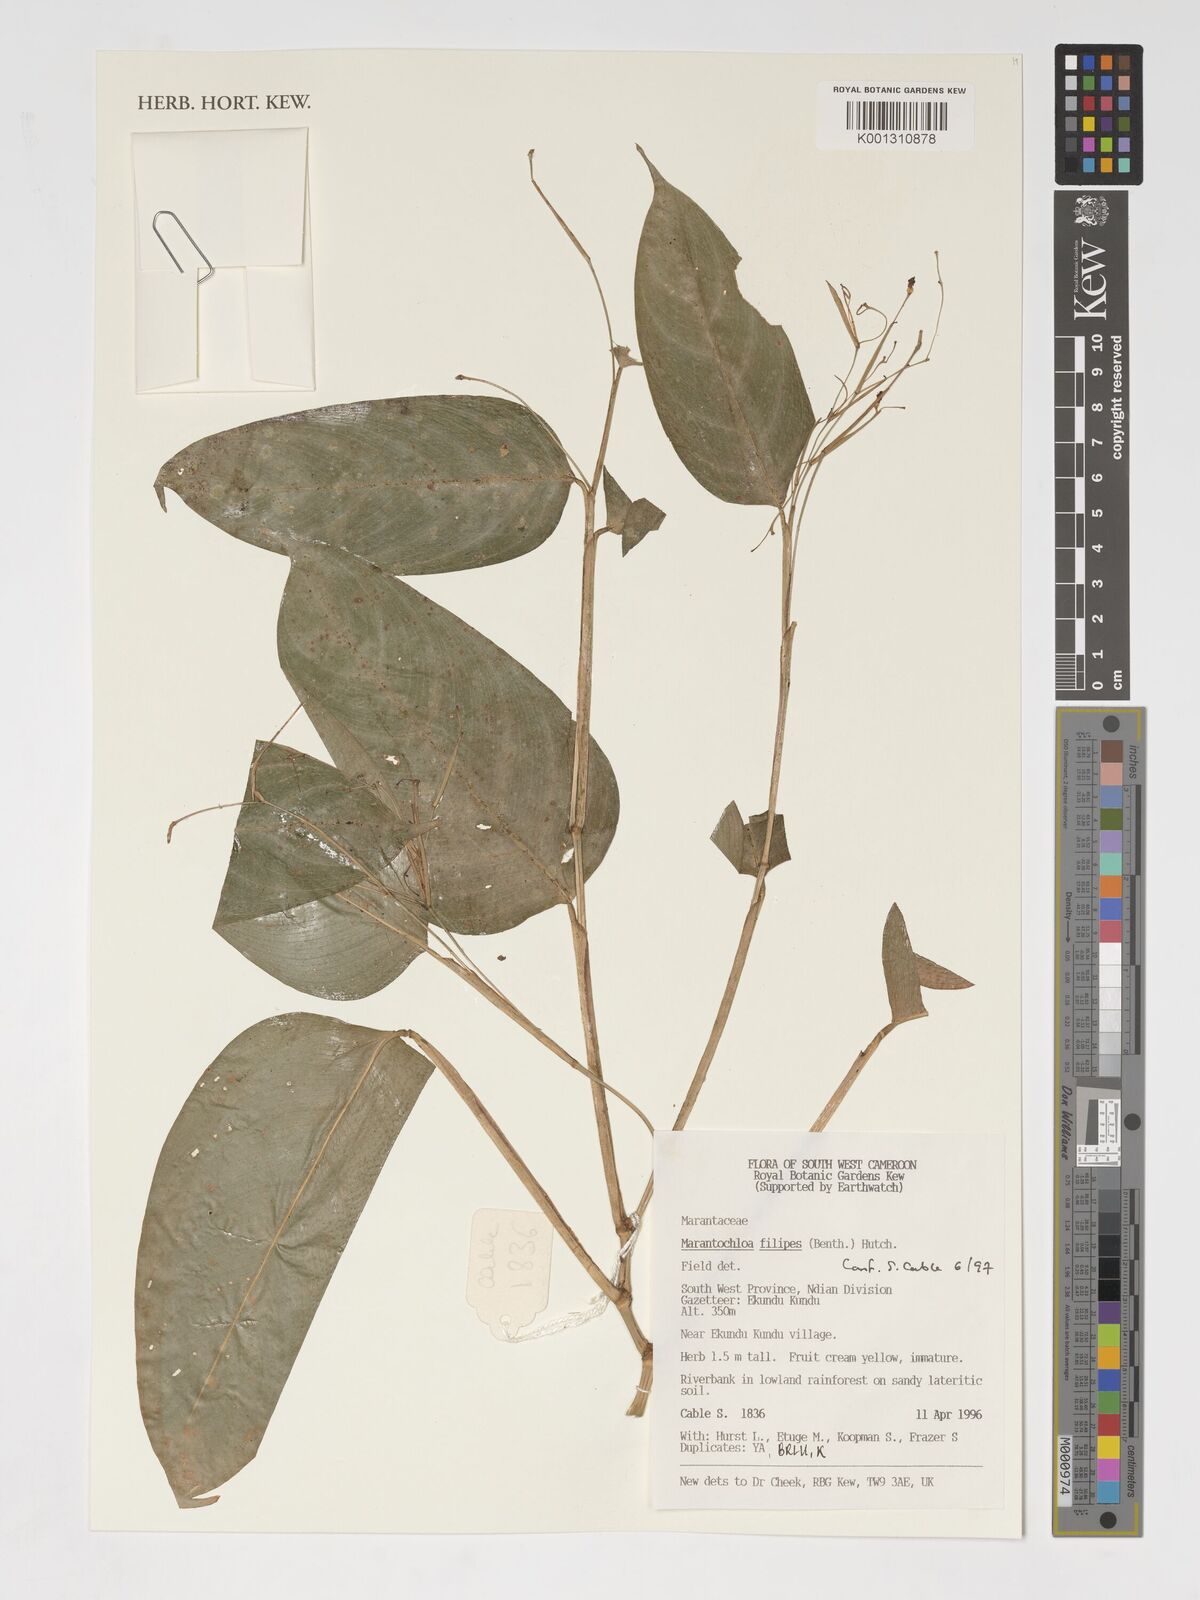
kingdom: Plantae
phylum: Tracheophyta
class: Liliopsida
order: Zingiberales
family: Marantaceae
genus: Marantochloa
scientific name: Marantochloa filipes
